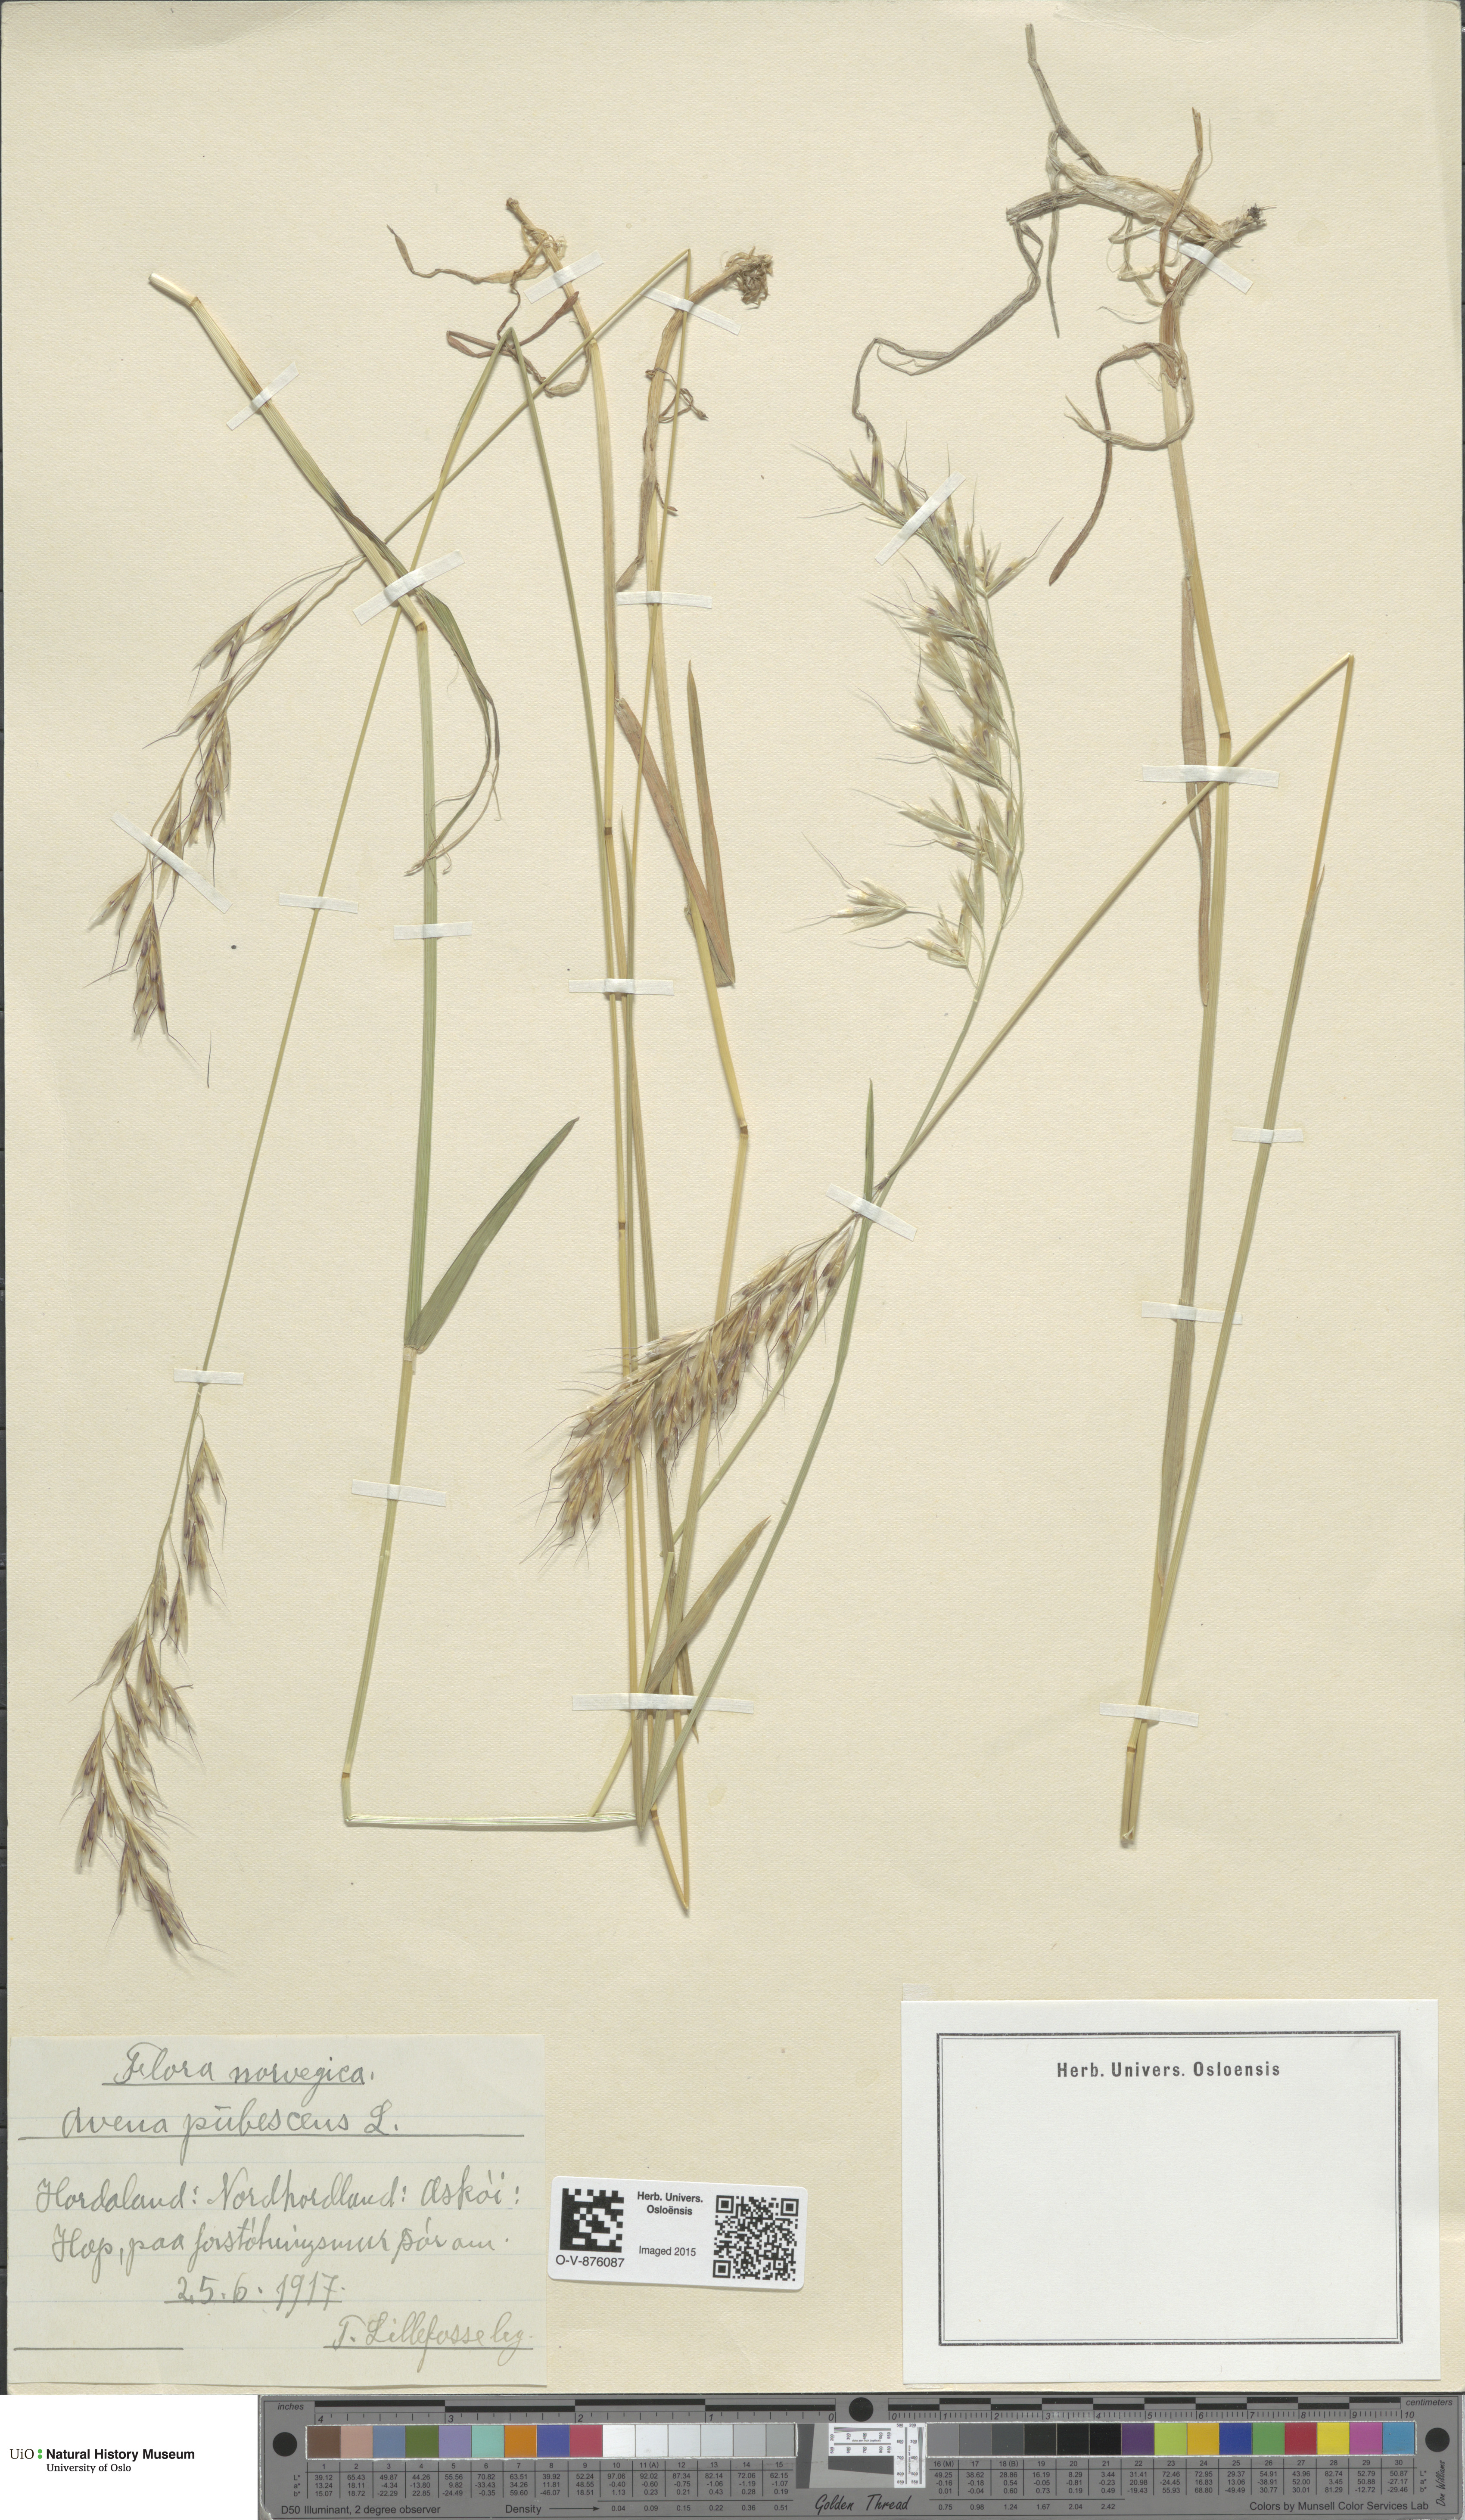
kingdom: Plantae
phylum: Tracheophyta
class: Liliopsida
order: Poales
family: Poaceae
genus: Avenula
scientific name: Avenula pubescens
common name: Downy alpine oatgrass
